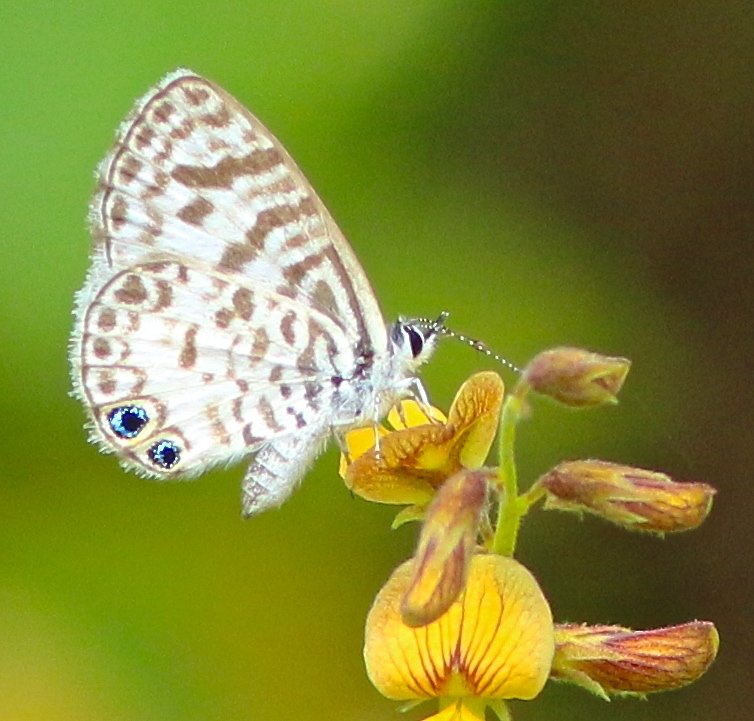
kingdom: Animalia
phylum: Arthropoda
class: Insecta
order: Lepidoptera
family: Lycaenidae
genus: Leptotes
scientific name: Leptotes cassius
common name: Cassius Blue
